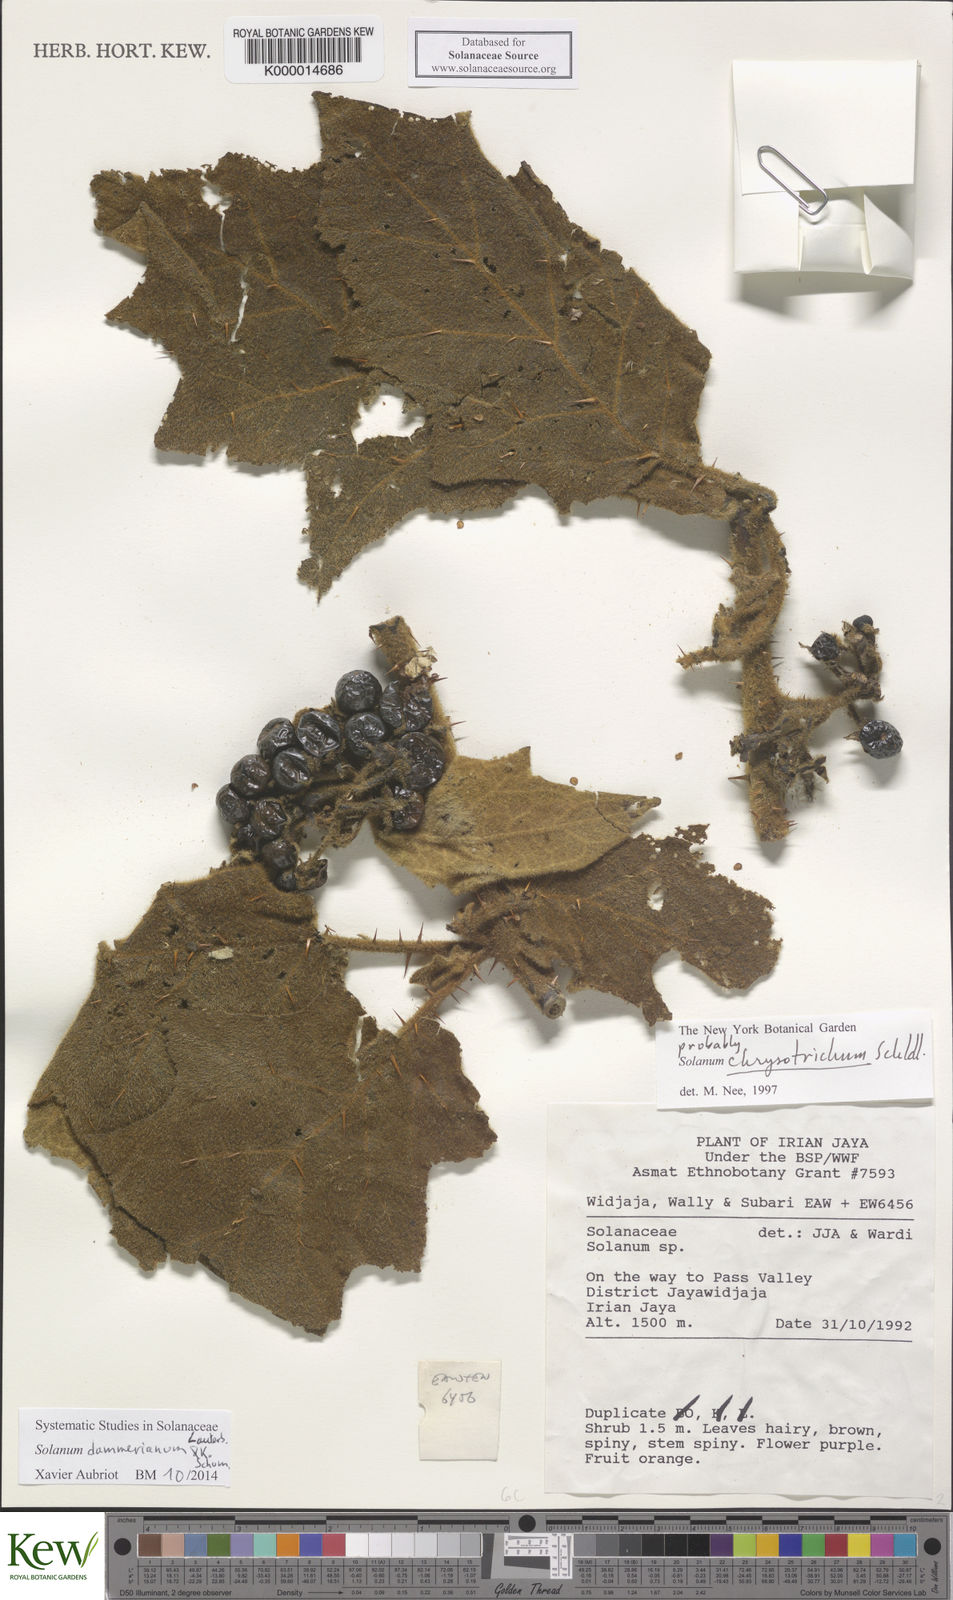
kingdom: Plantae
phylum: Tracheophyta
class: Magnoliopsida
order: Solanales
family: Solanaceae
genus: Solanum
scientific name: Solanum dammerianum
